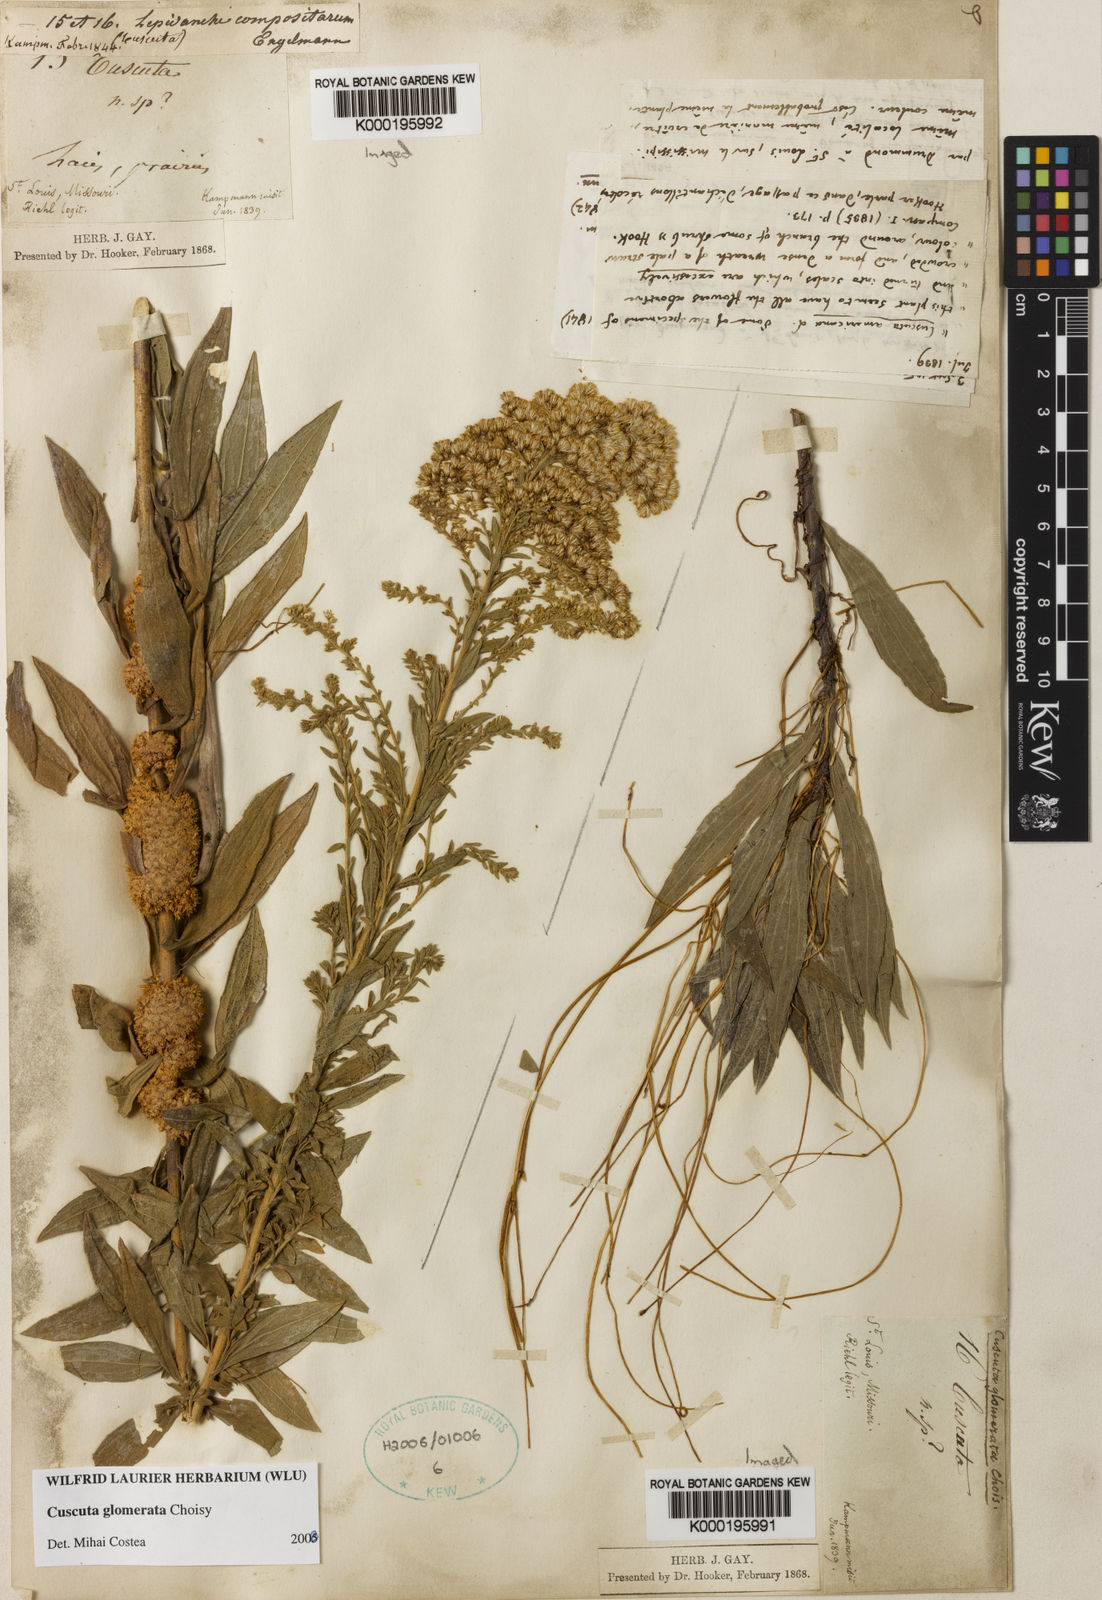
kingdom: Plantae
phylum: Tracheophyta
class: Magnoliopsida
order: Solanales
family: Convolvulaceae
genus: Cuscuta
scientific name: Cuscuta glomerata
